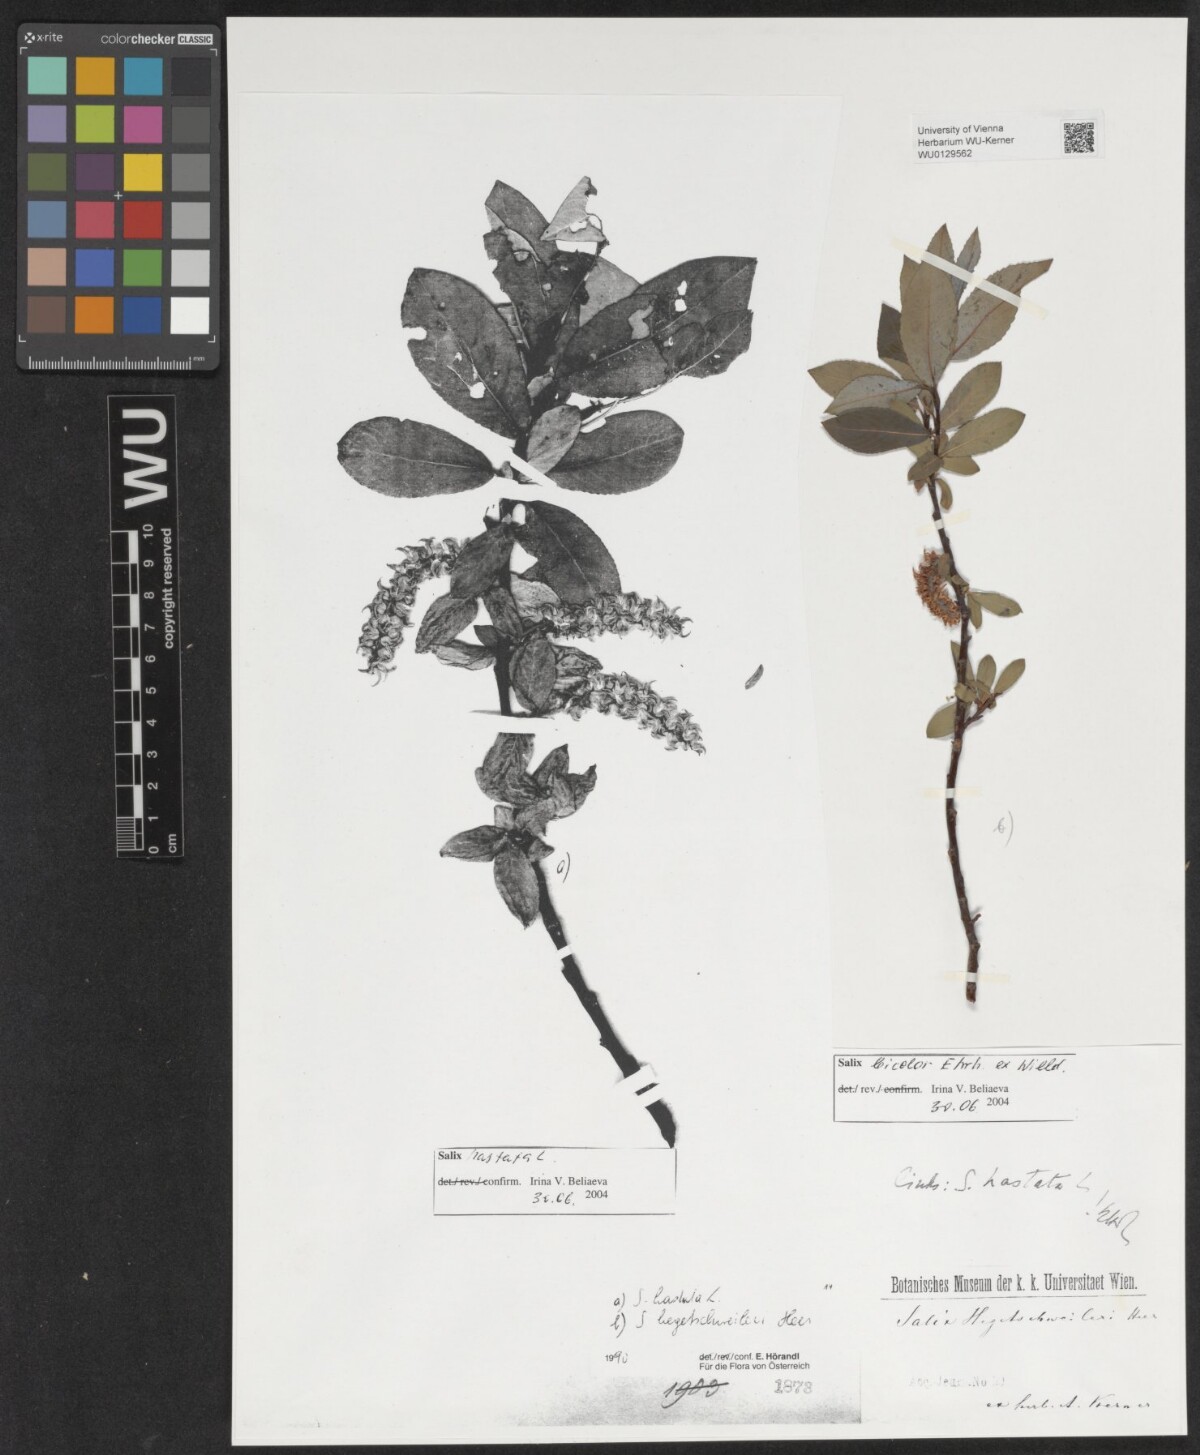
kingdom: Plantae
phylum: Tracheophyta
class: Magnoliopsida
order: Malpighiales
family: Salicaceae
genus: Salix
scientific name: Salix bicolor
